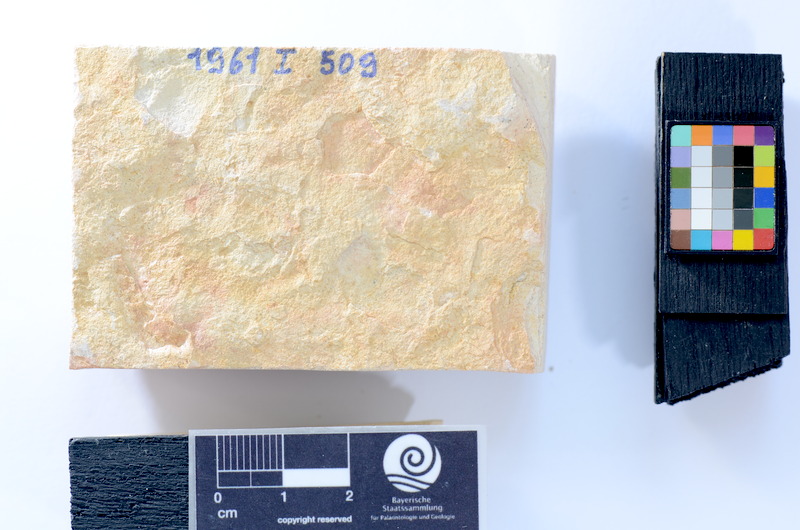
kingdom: Animalia
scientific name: Animalia
